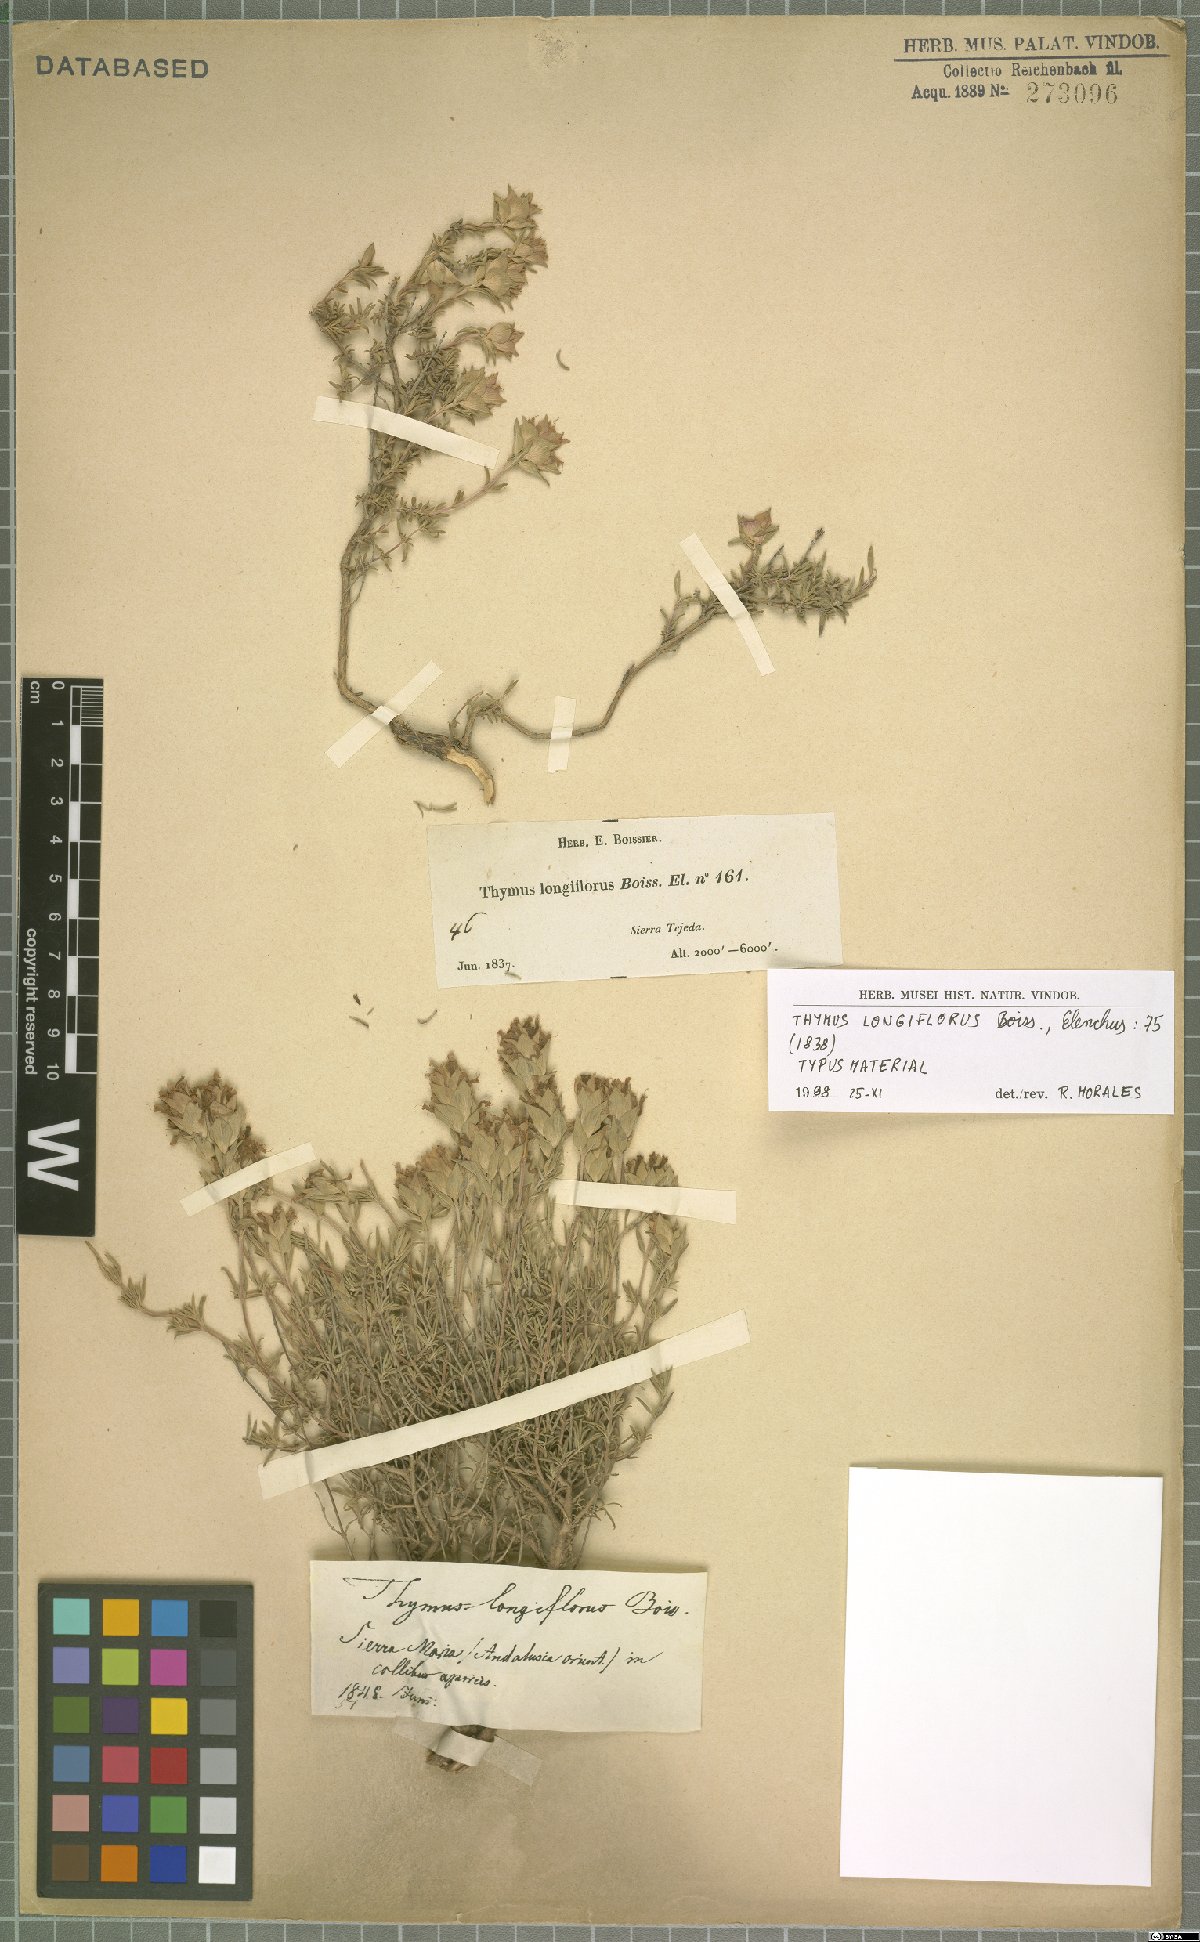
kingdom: Plantae
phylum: Tracheophyta
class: Magnoliopsida
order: Lamiales
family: Lamiaceae
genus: Thymus
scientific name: Thymus longiflorus
